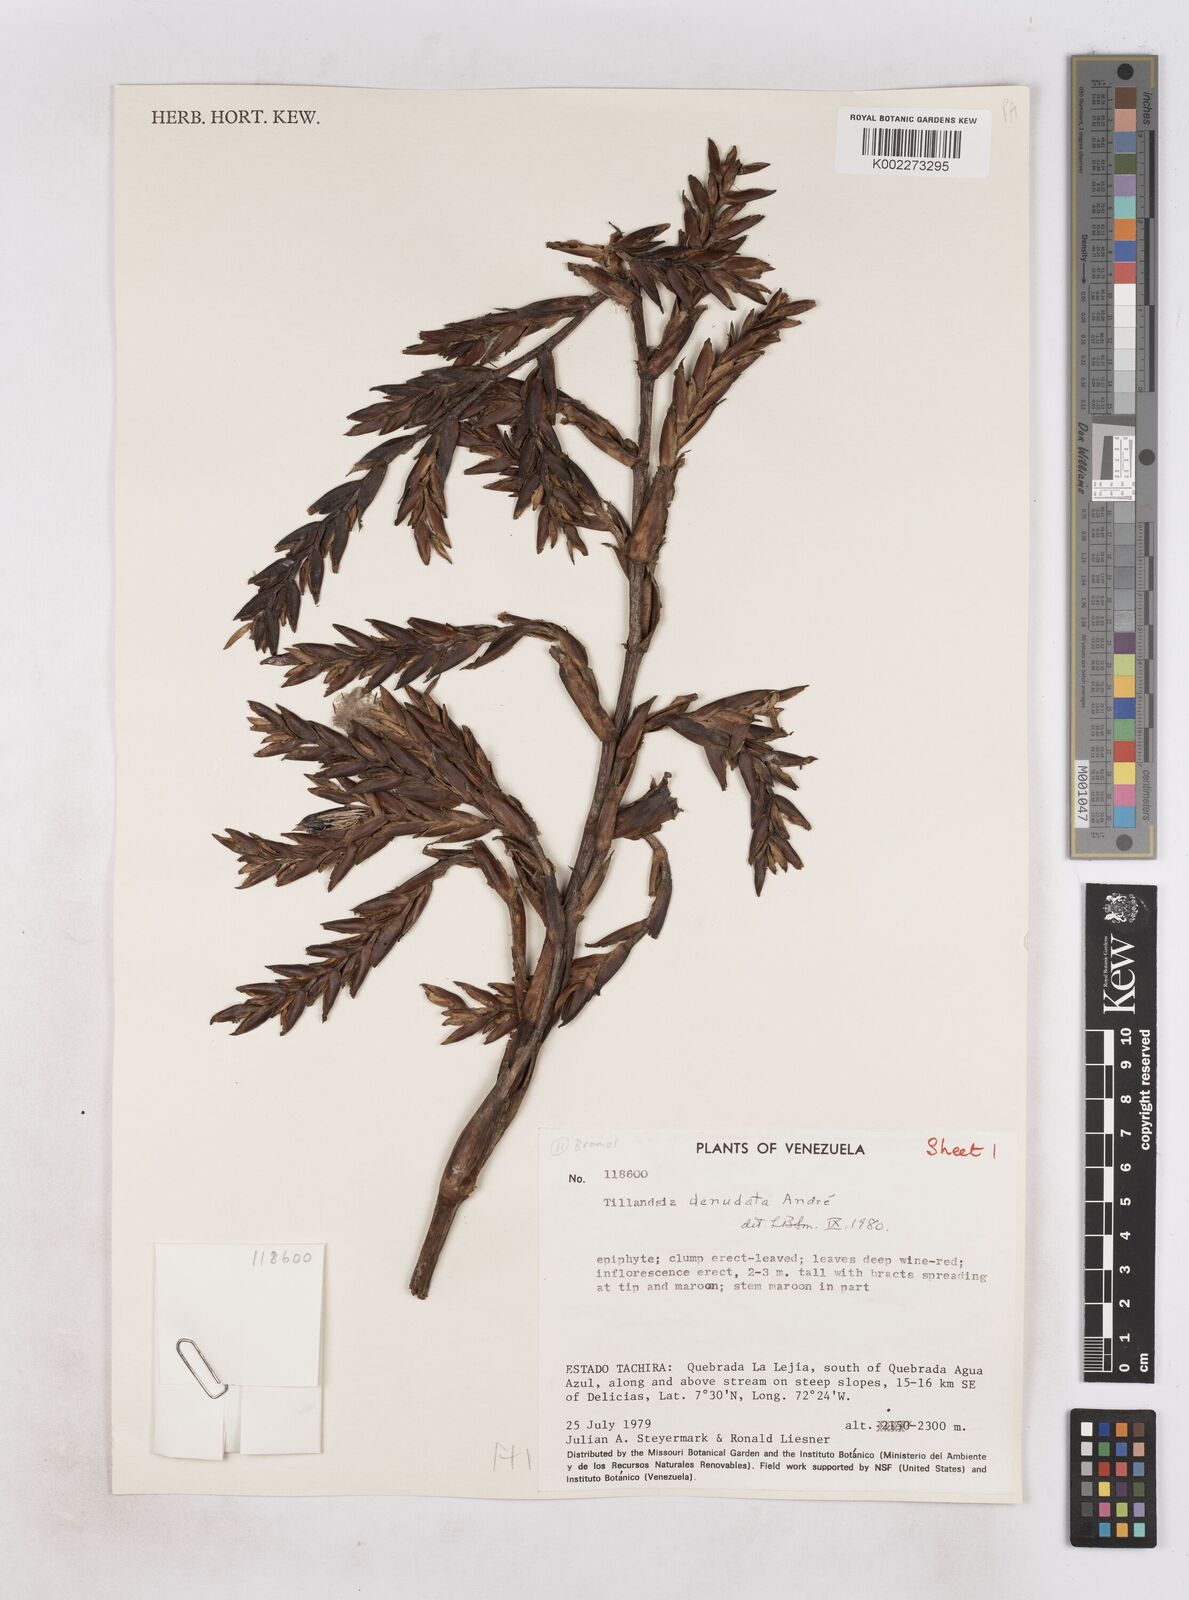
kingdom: Plantae
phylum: Tracheophyta
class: Liliopsida
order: Poales
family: Bromeliaceae
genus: Tillandsia
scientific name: Tillandsia denudata
